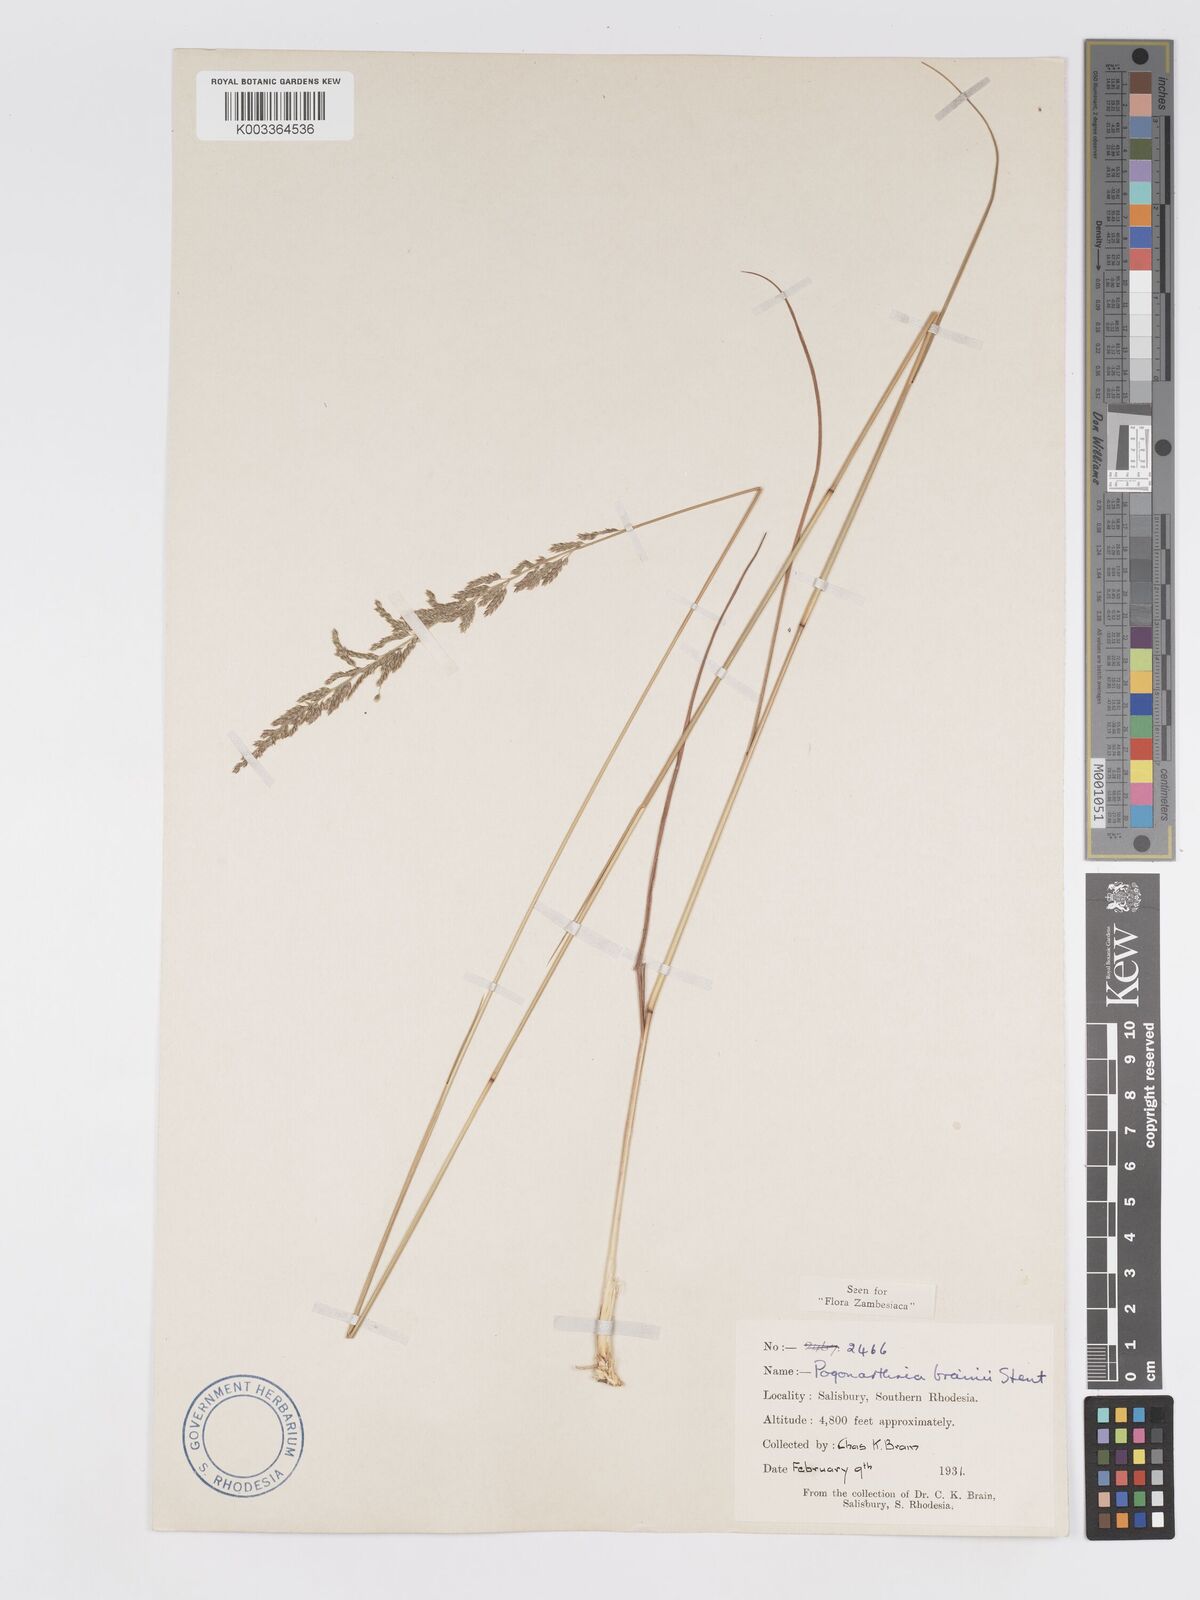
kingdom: Plantae
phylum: Tracheophyta
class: Liliopsida
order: Poales
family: Poaceae
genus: Eragrostis
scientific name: Eragrostis brainii
